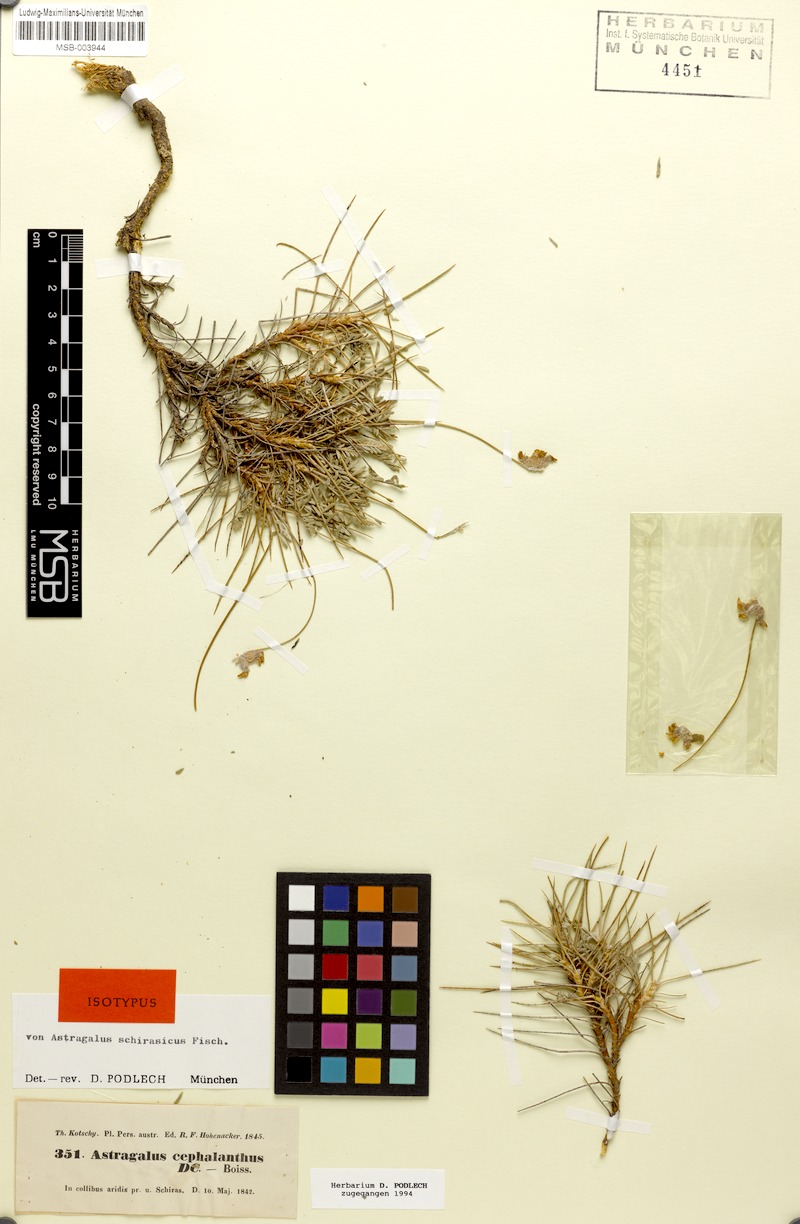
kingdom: Plantae
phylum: Tracheophyta
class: Magnoliopsida
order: Fabales
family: Fabaceae
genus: Astragalus
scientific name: Astragalus cephalanthus
